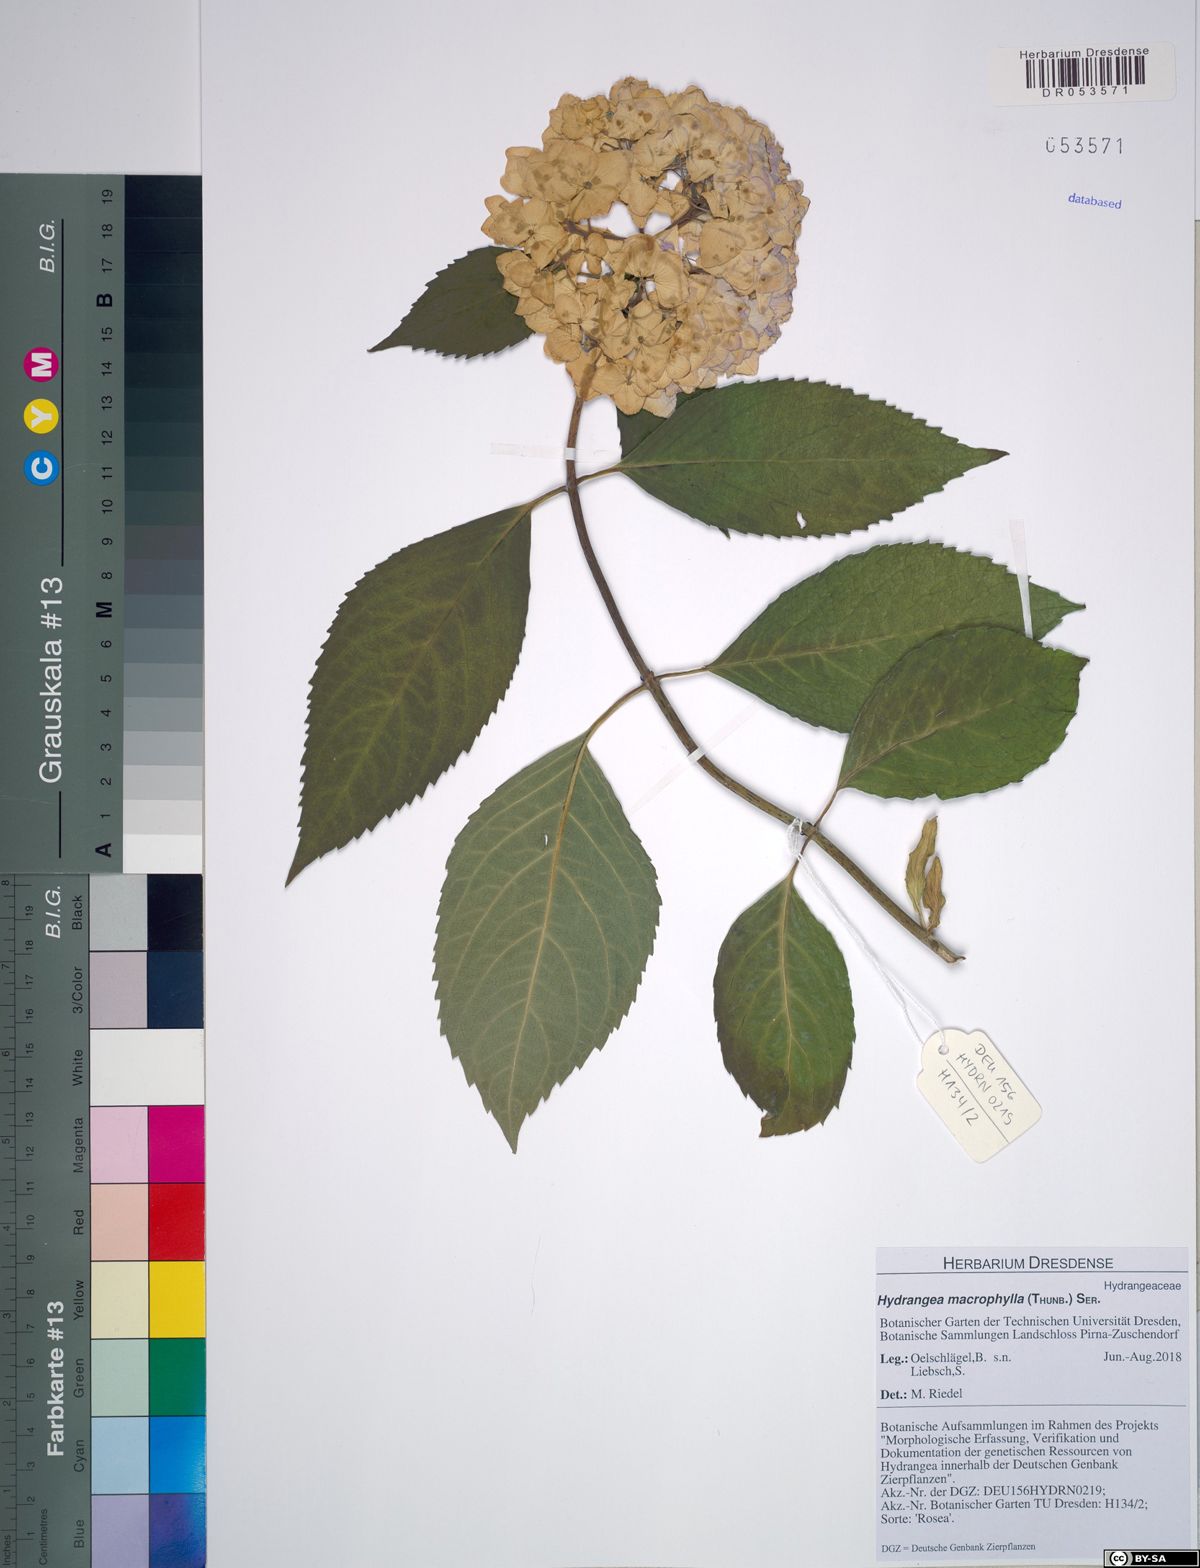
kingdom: Plantae
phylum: Tracheophyta
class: Magnoliopsida
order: Cornales
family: Hydrangeaceae
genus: Hydrangea
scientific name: Hydrangea macrophylla
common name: Hydrangea
